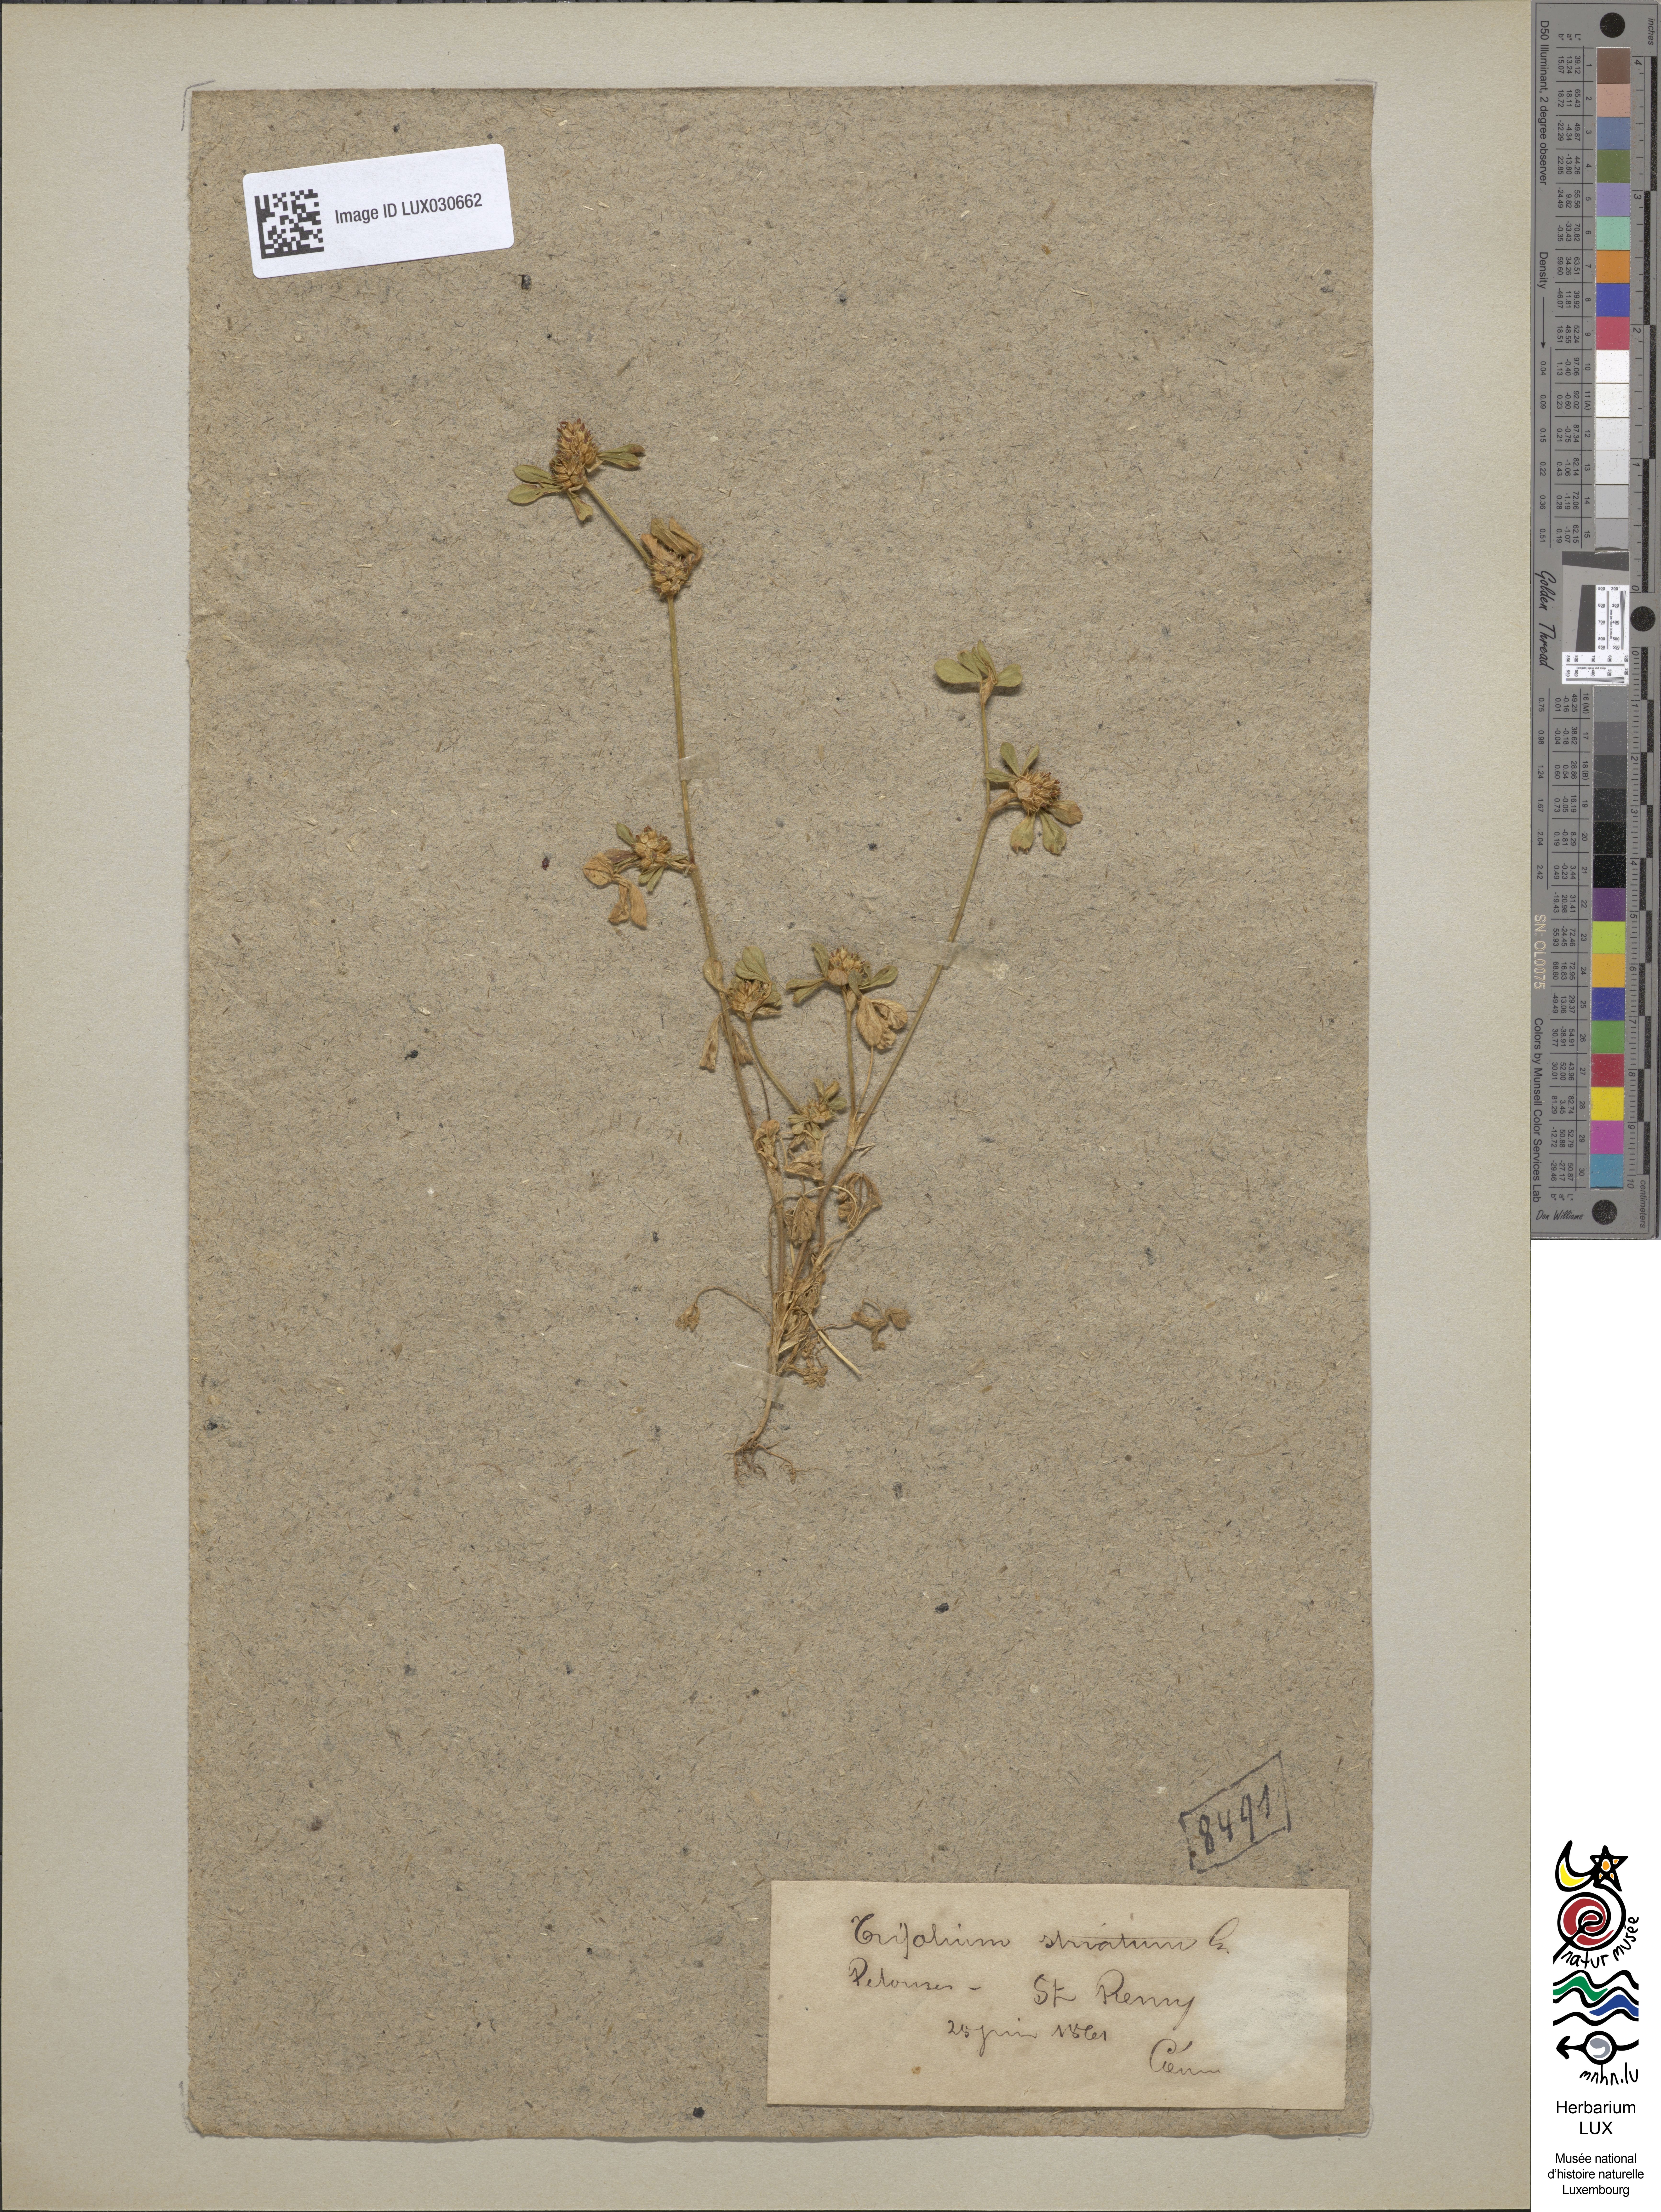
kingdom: Plantae
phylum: Tracheophyta
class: Magnoliopsida
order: Fabales
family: Fabaceae
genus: Trifolium
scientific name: Trifolium striatum
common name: Knotted clover
